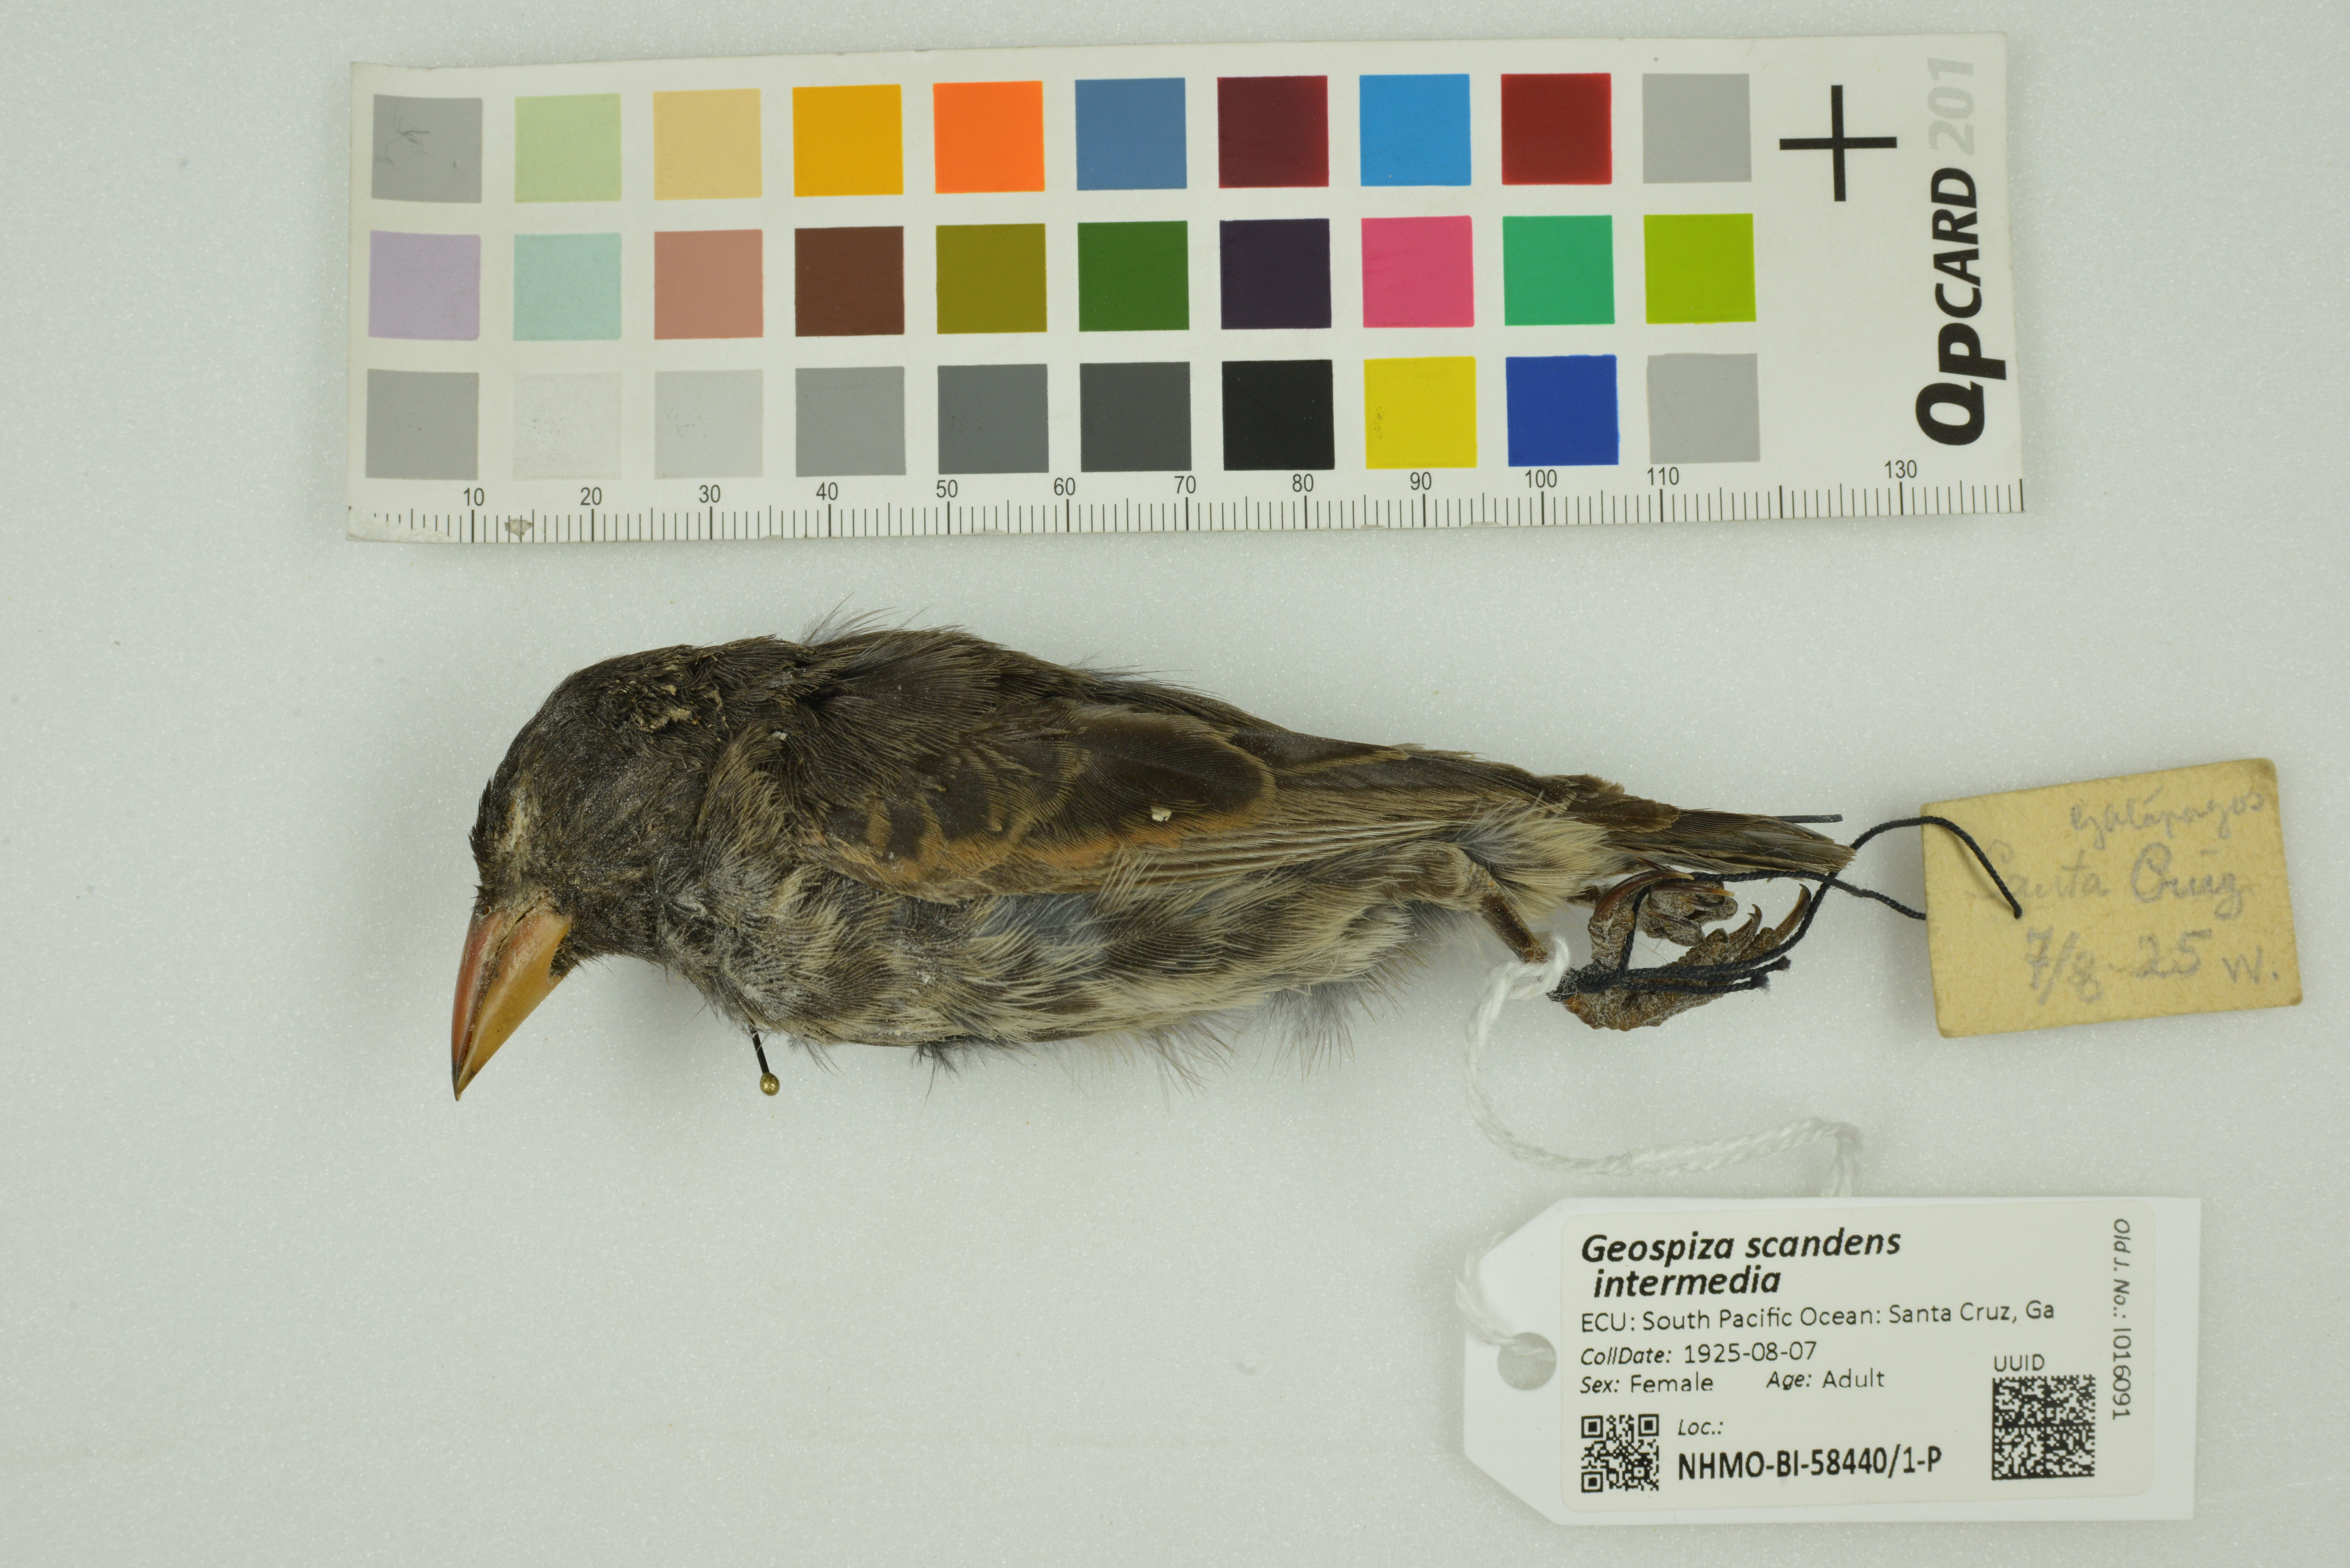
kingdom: Animalia
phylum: Chordata
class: Aves
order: Passeriformes
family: Thraupidae
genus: Geospiza
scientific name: Geospiza scandens
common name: Common cactus-finch
